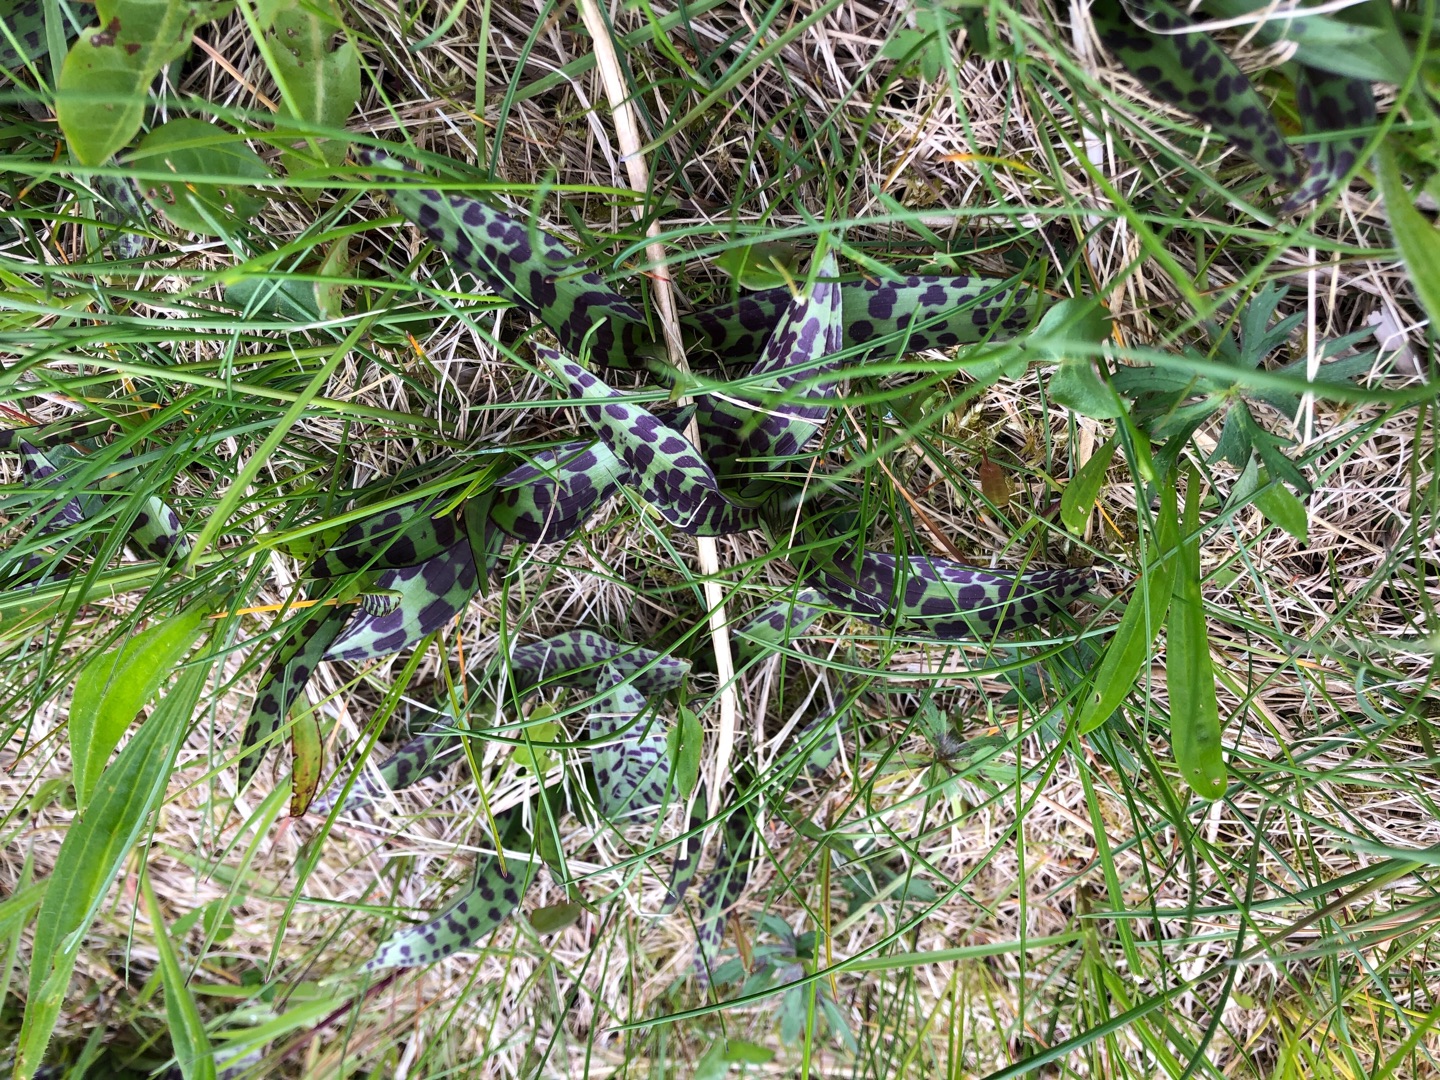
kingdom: Plantae
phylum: Tracheophyta
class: Liliopsida
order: Asparagales
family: Orchidaceae
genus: Dactylorhiza
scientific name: Dactylorhiza majalis
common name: Maj-gøgeurt
